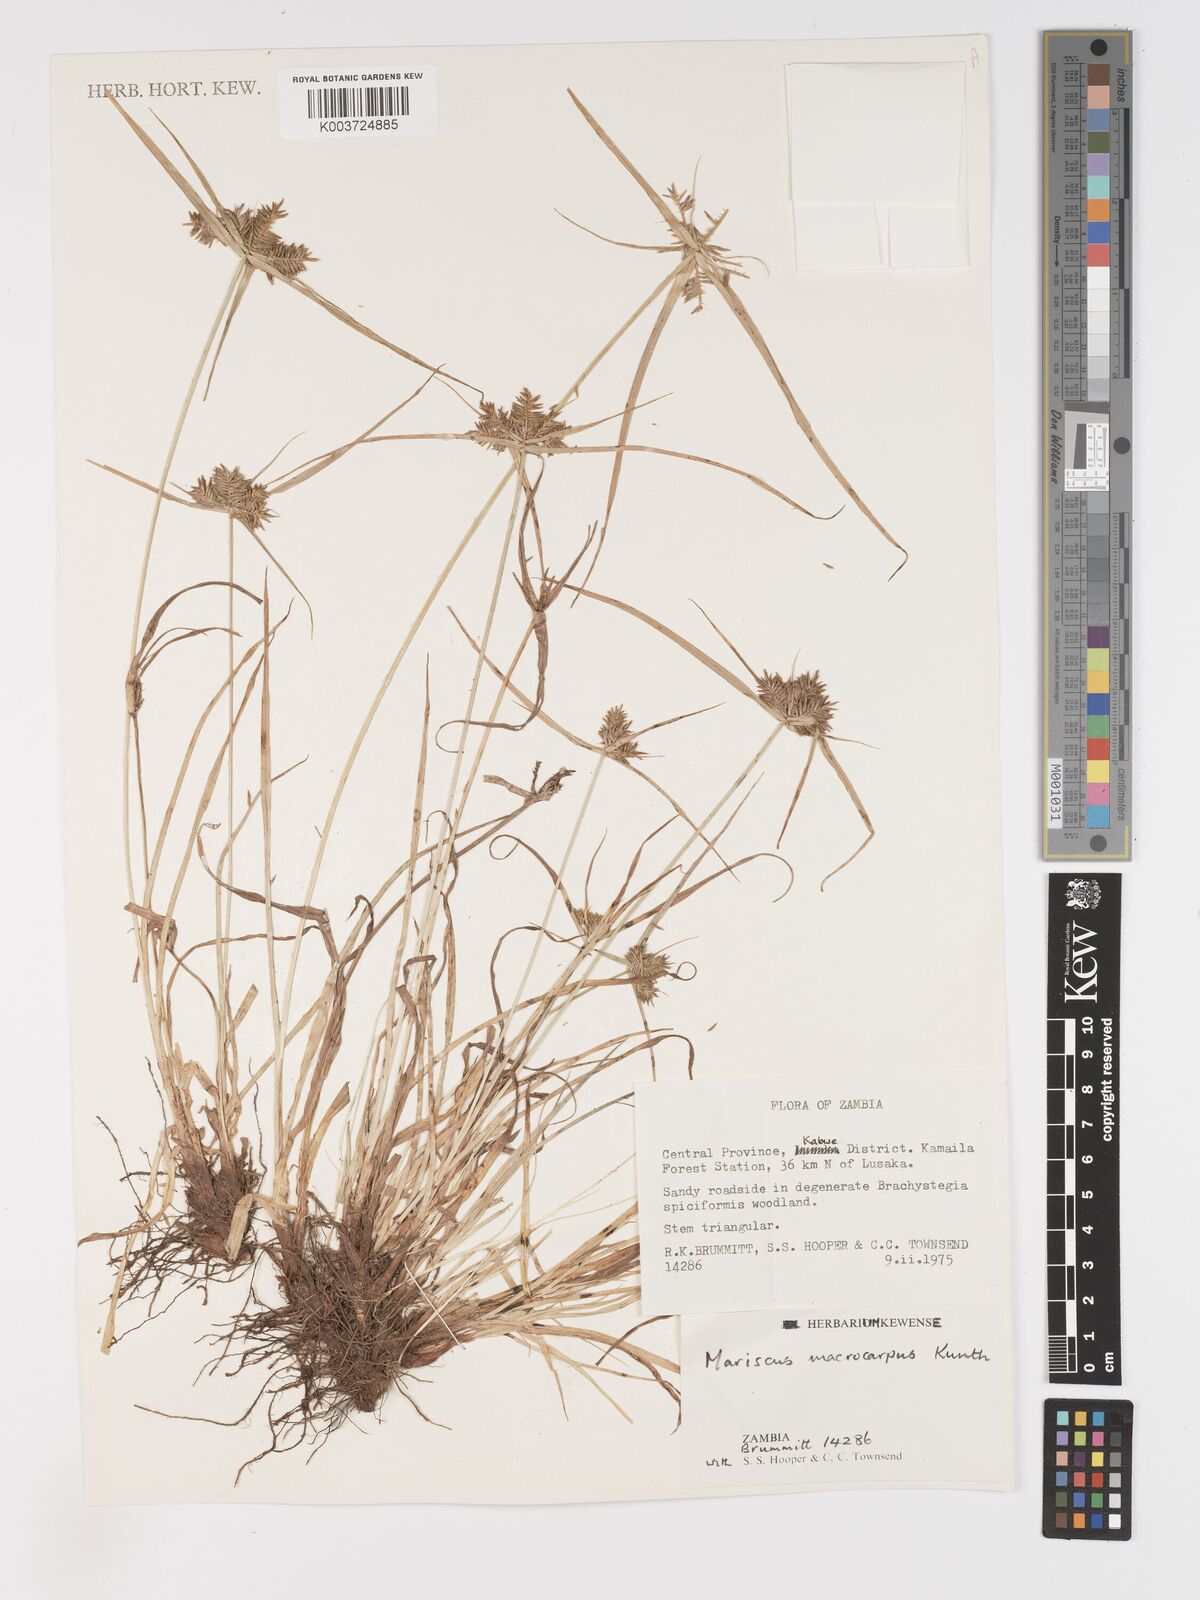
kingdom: Plantae
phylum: Tracheophyta
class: Liliopsida
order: Poales
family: Cyperaceae
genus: Cyperus
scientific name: Cyperus macrocarpus
